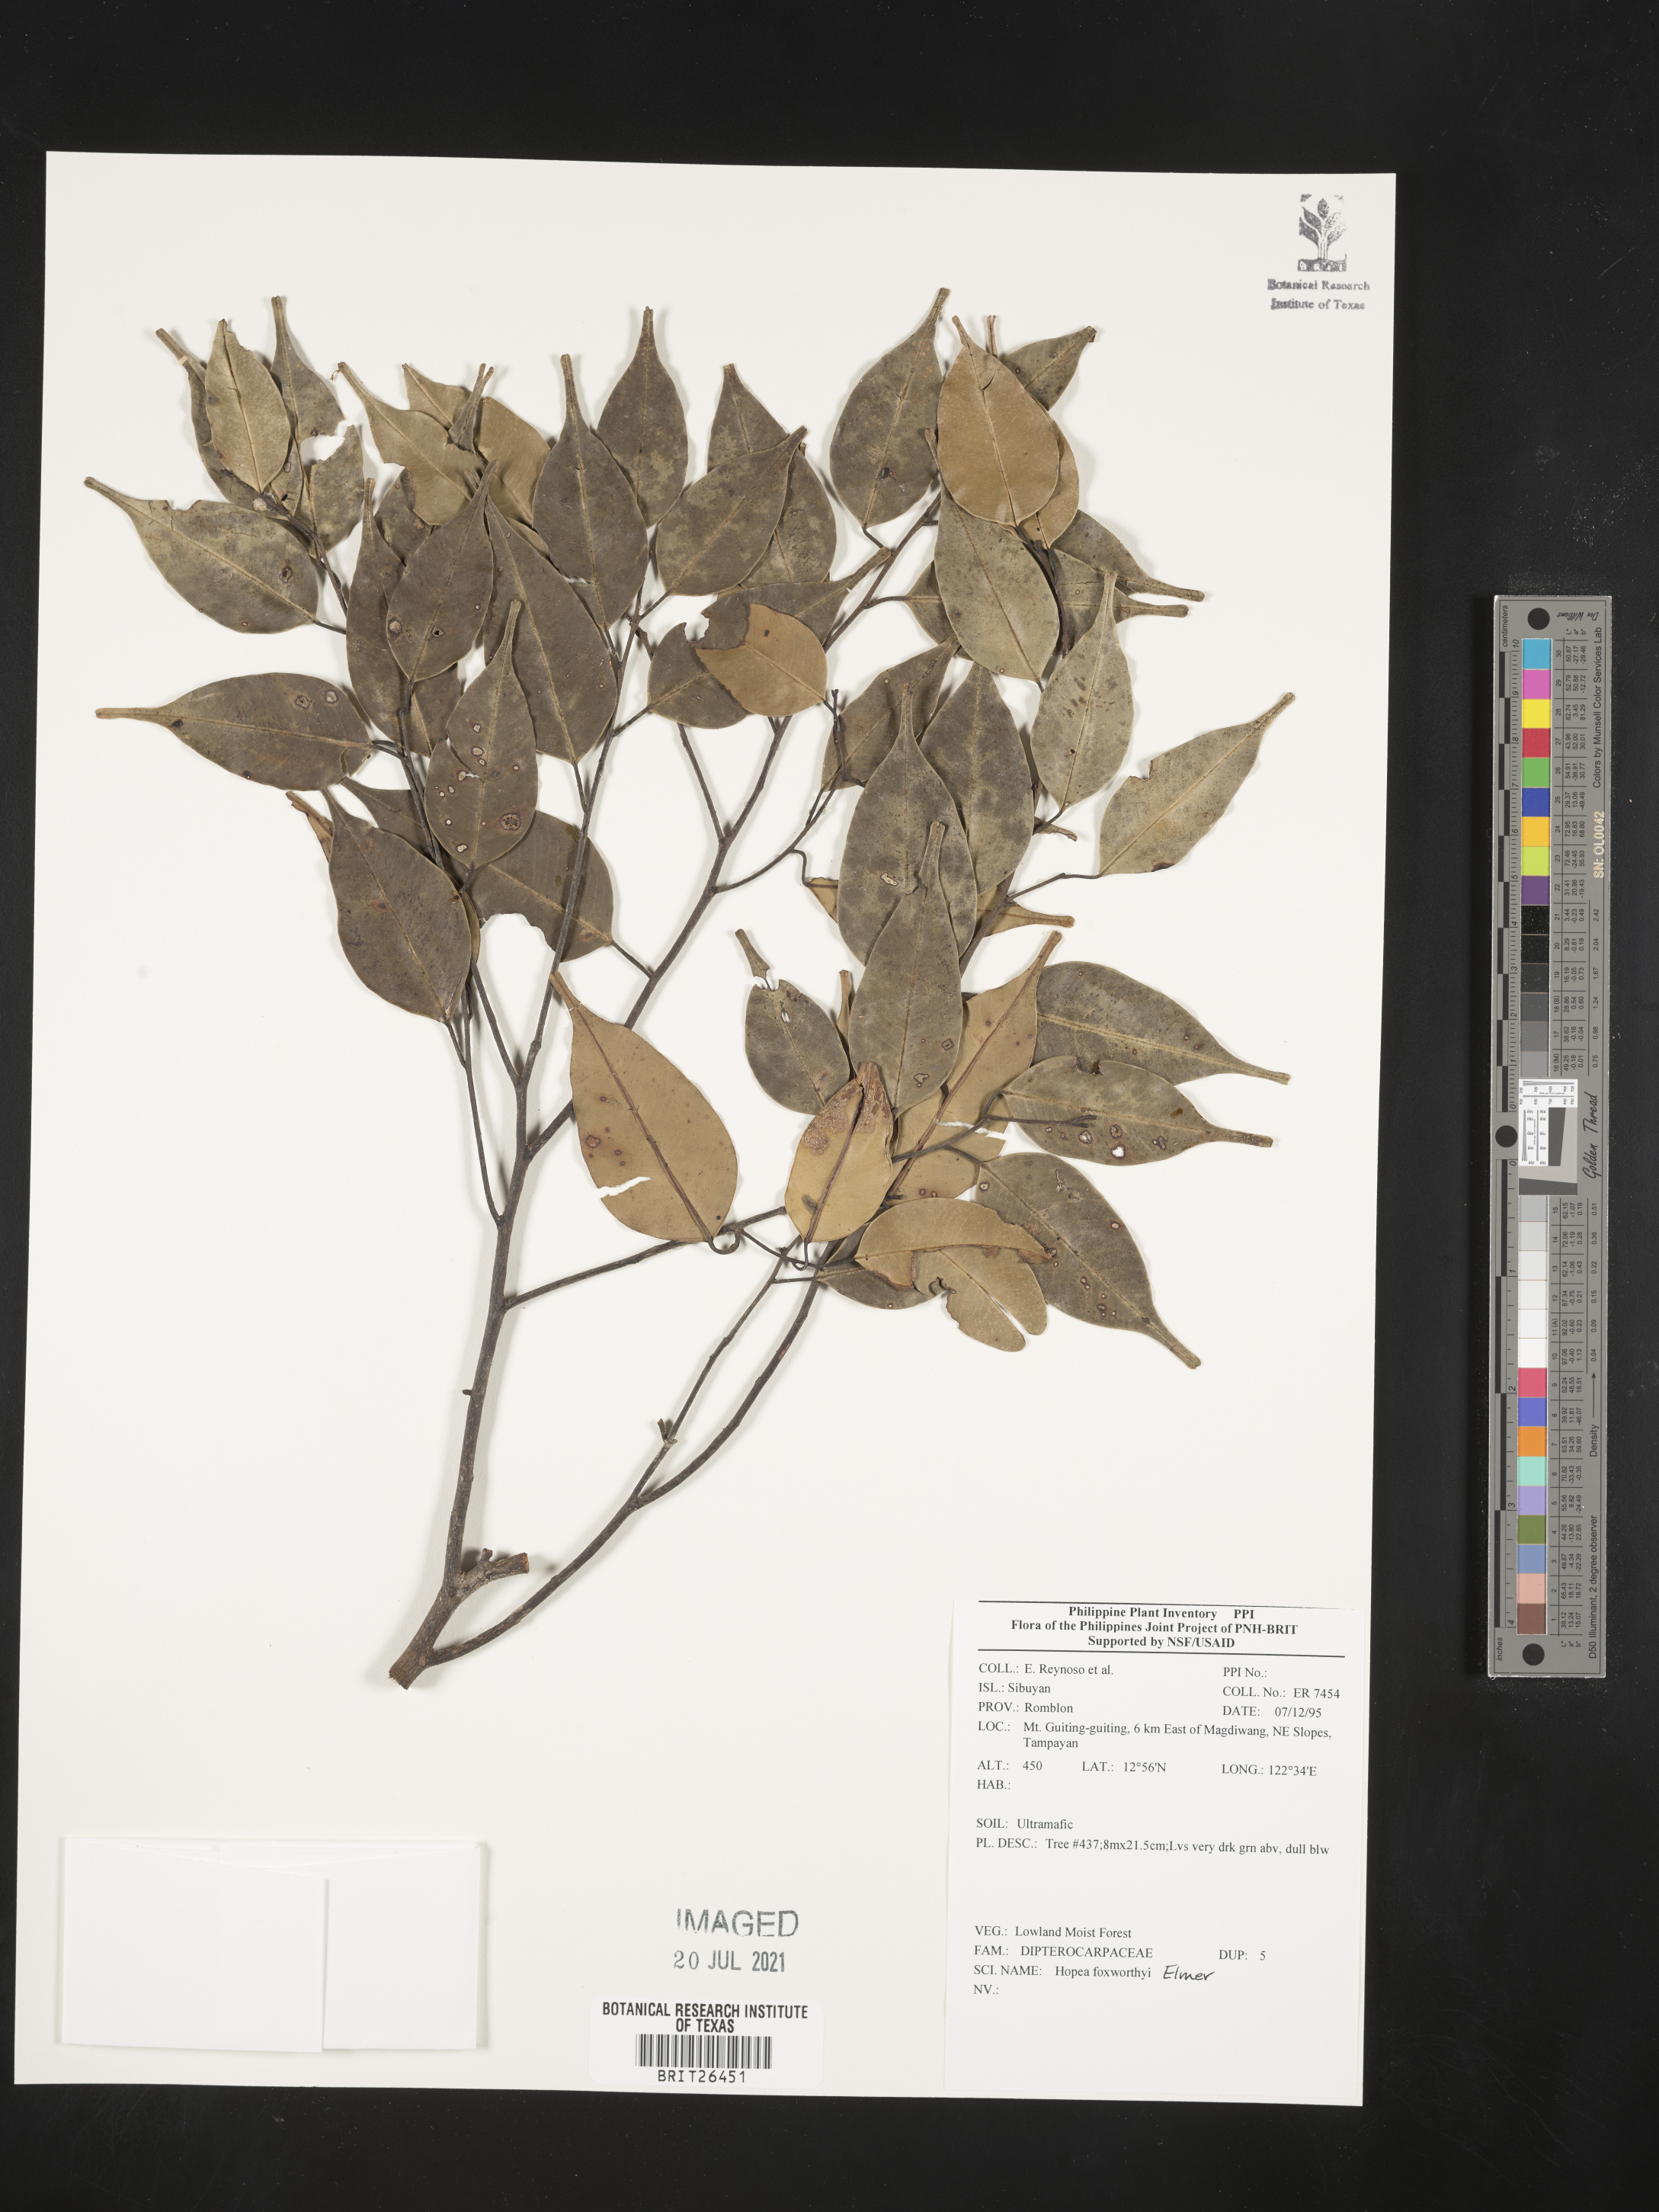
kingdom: Plantae
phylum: Tracheophyta
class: Magnoliopsida
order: Malvales
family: Dipterocarpaceae
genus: Hopea
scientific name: Hopea foxworthyi
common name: Dalingdingan
